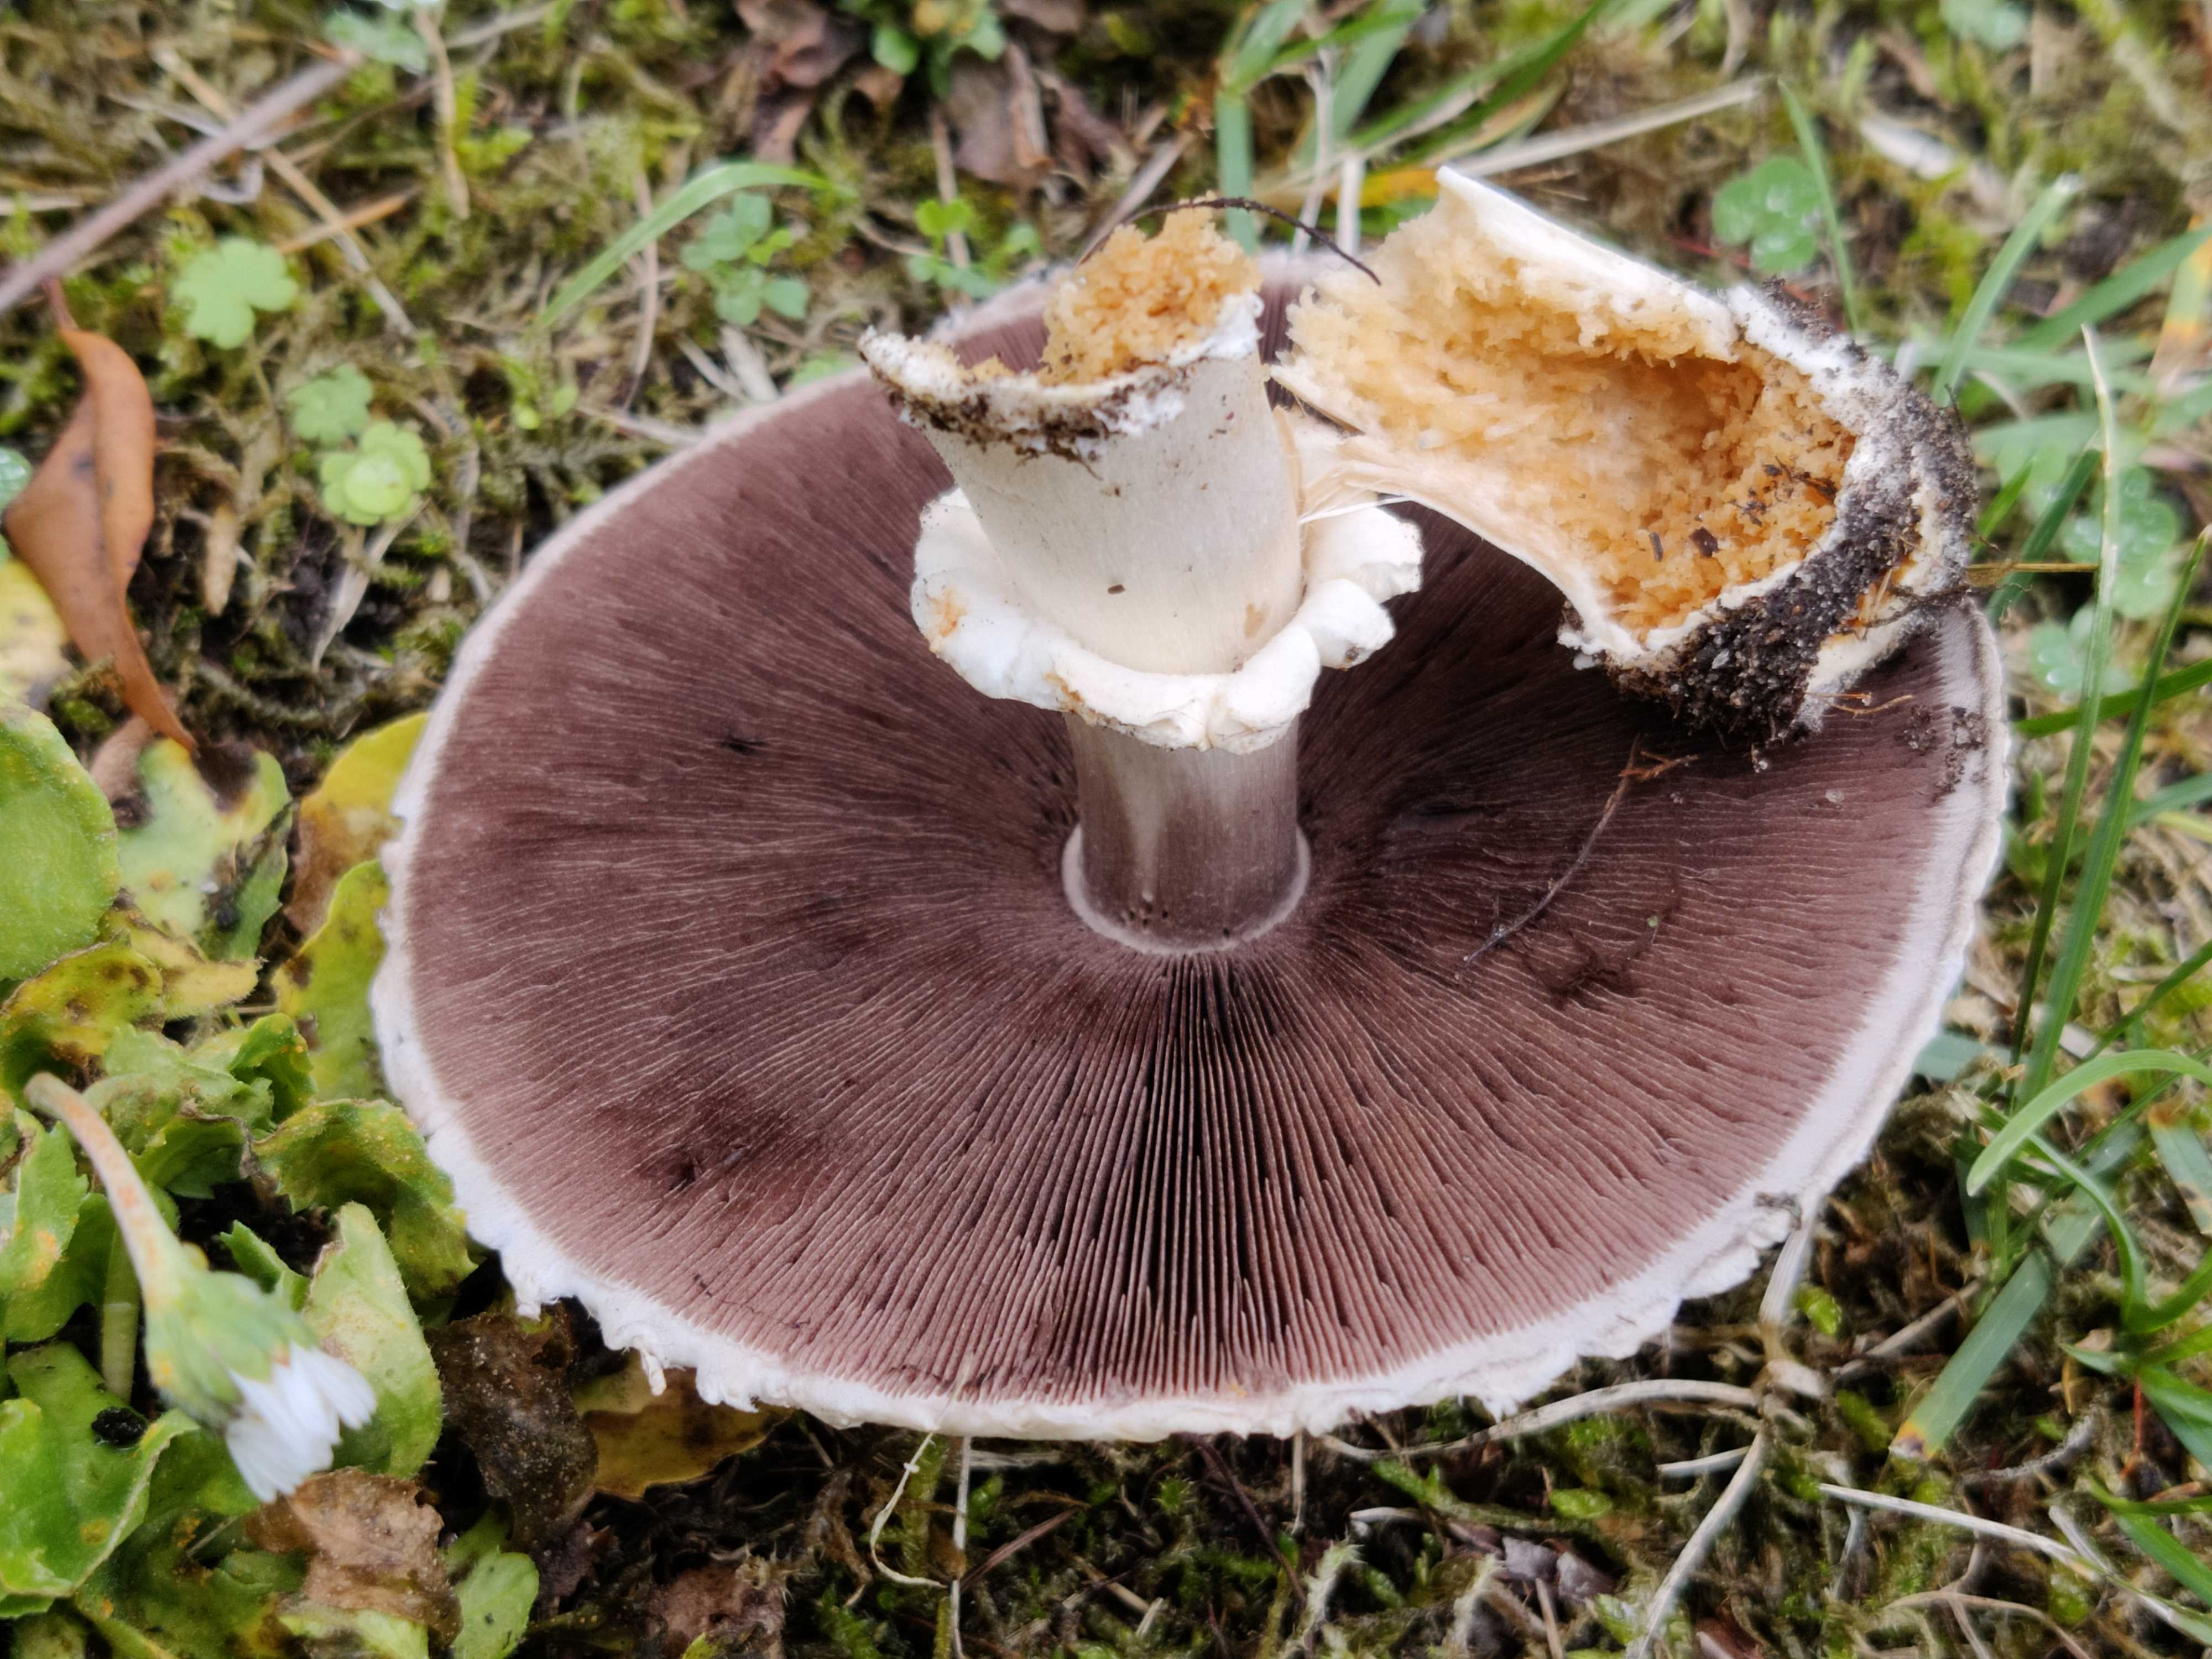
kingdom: Fungi
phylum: Basidiomycota
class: Agaricomycetes
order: Agaricales
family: Agaricaceae
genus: Agaricus
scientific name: Agaricus
